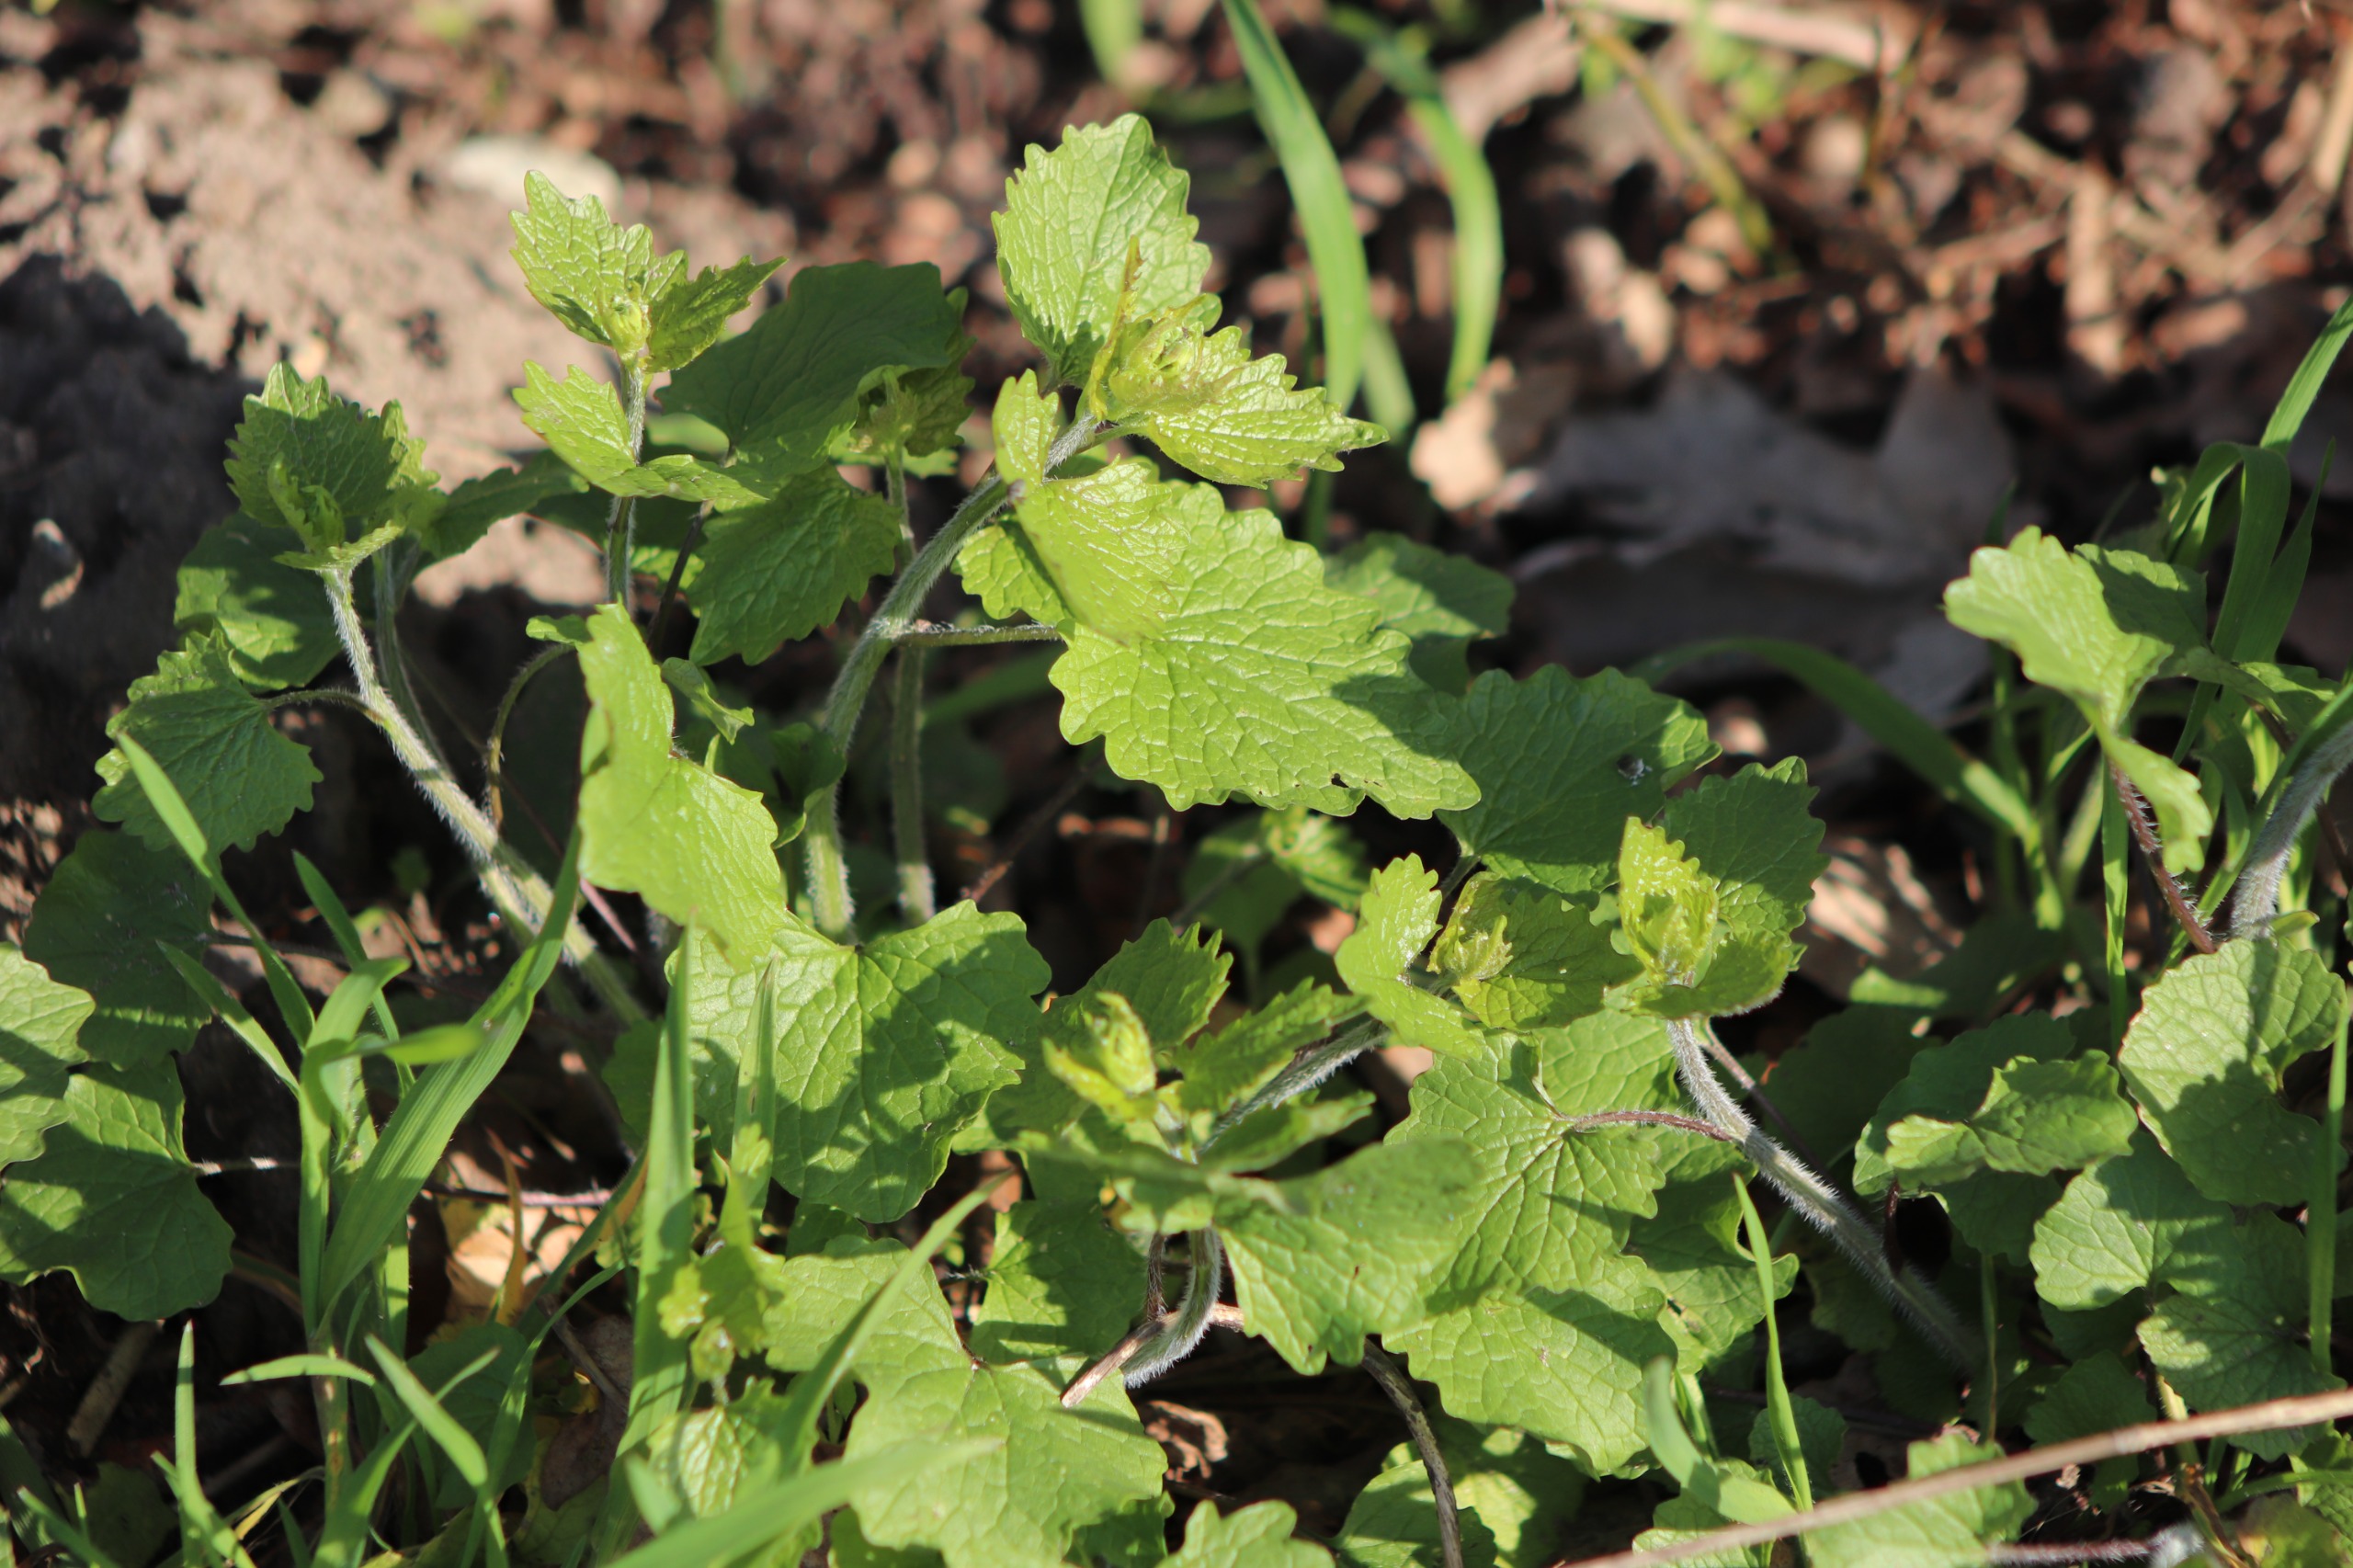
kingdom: Plantae
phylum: Tracheophyta
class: Magnoliopsida
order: Brassicales
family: Brassicaceae
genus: Alliaria
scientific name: Alliaria petiolata
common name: Løgkarse
